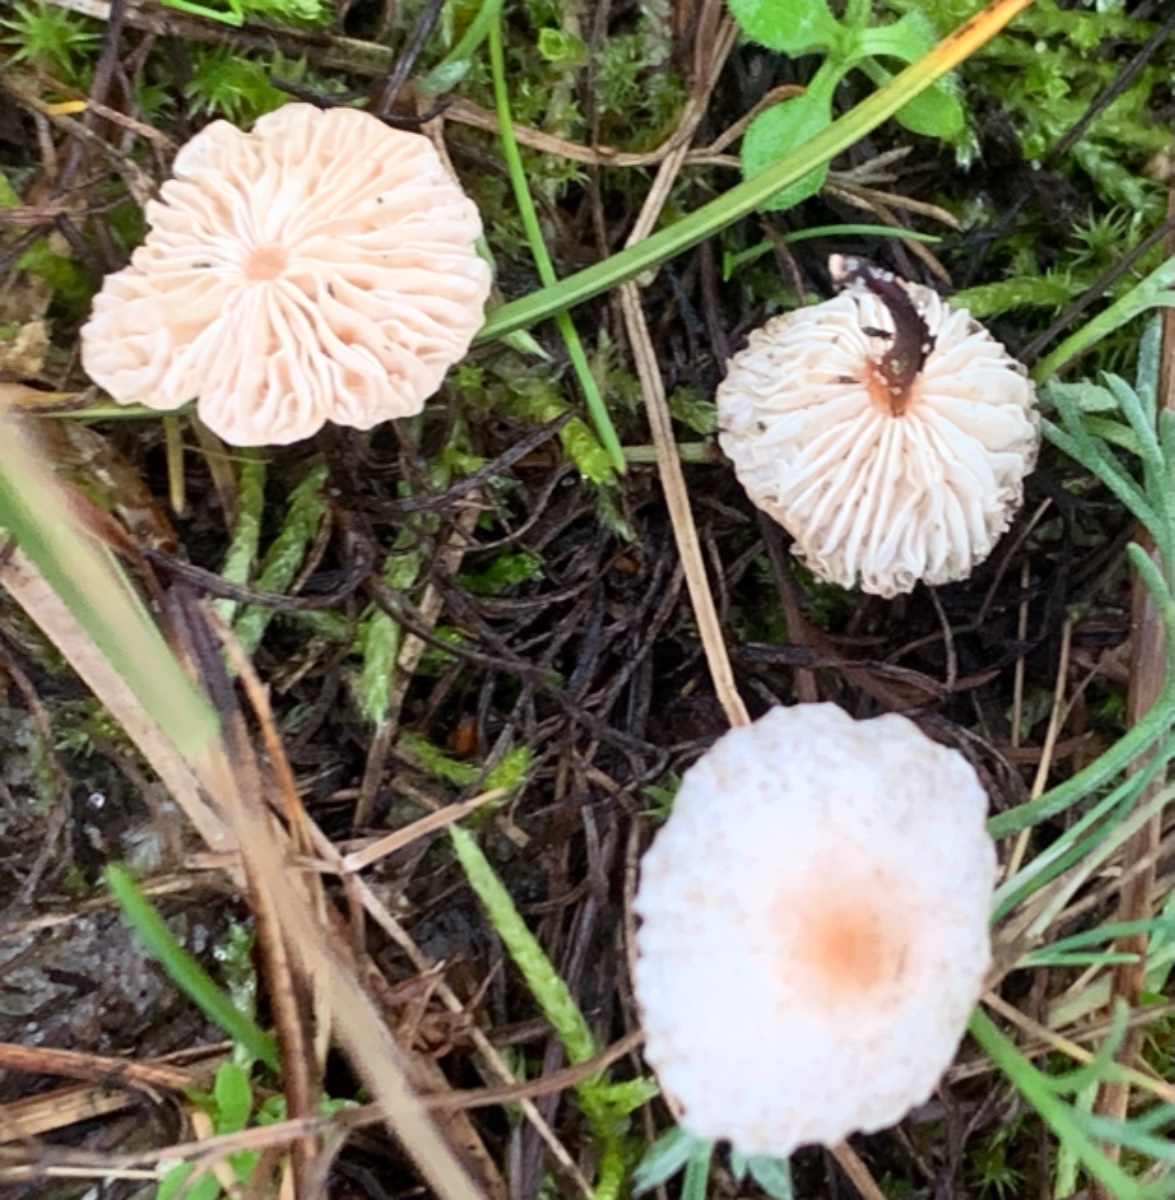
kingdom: Fungi
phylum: Basidiomycota
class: Agaricomycetes
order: Agaricales
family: Omphalotaceae
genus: Mycetinis
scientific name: Mycetinis scorodonius
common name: lille løghat
